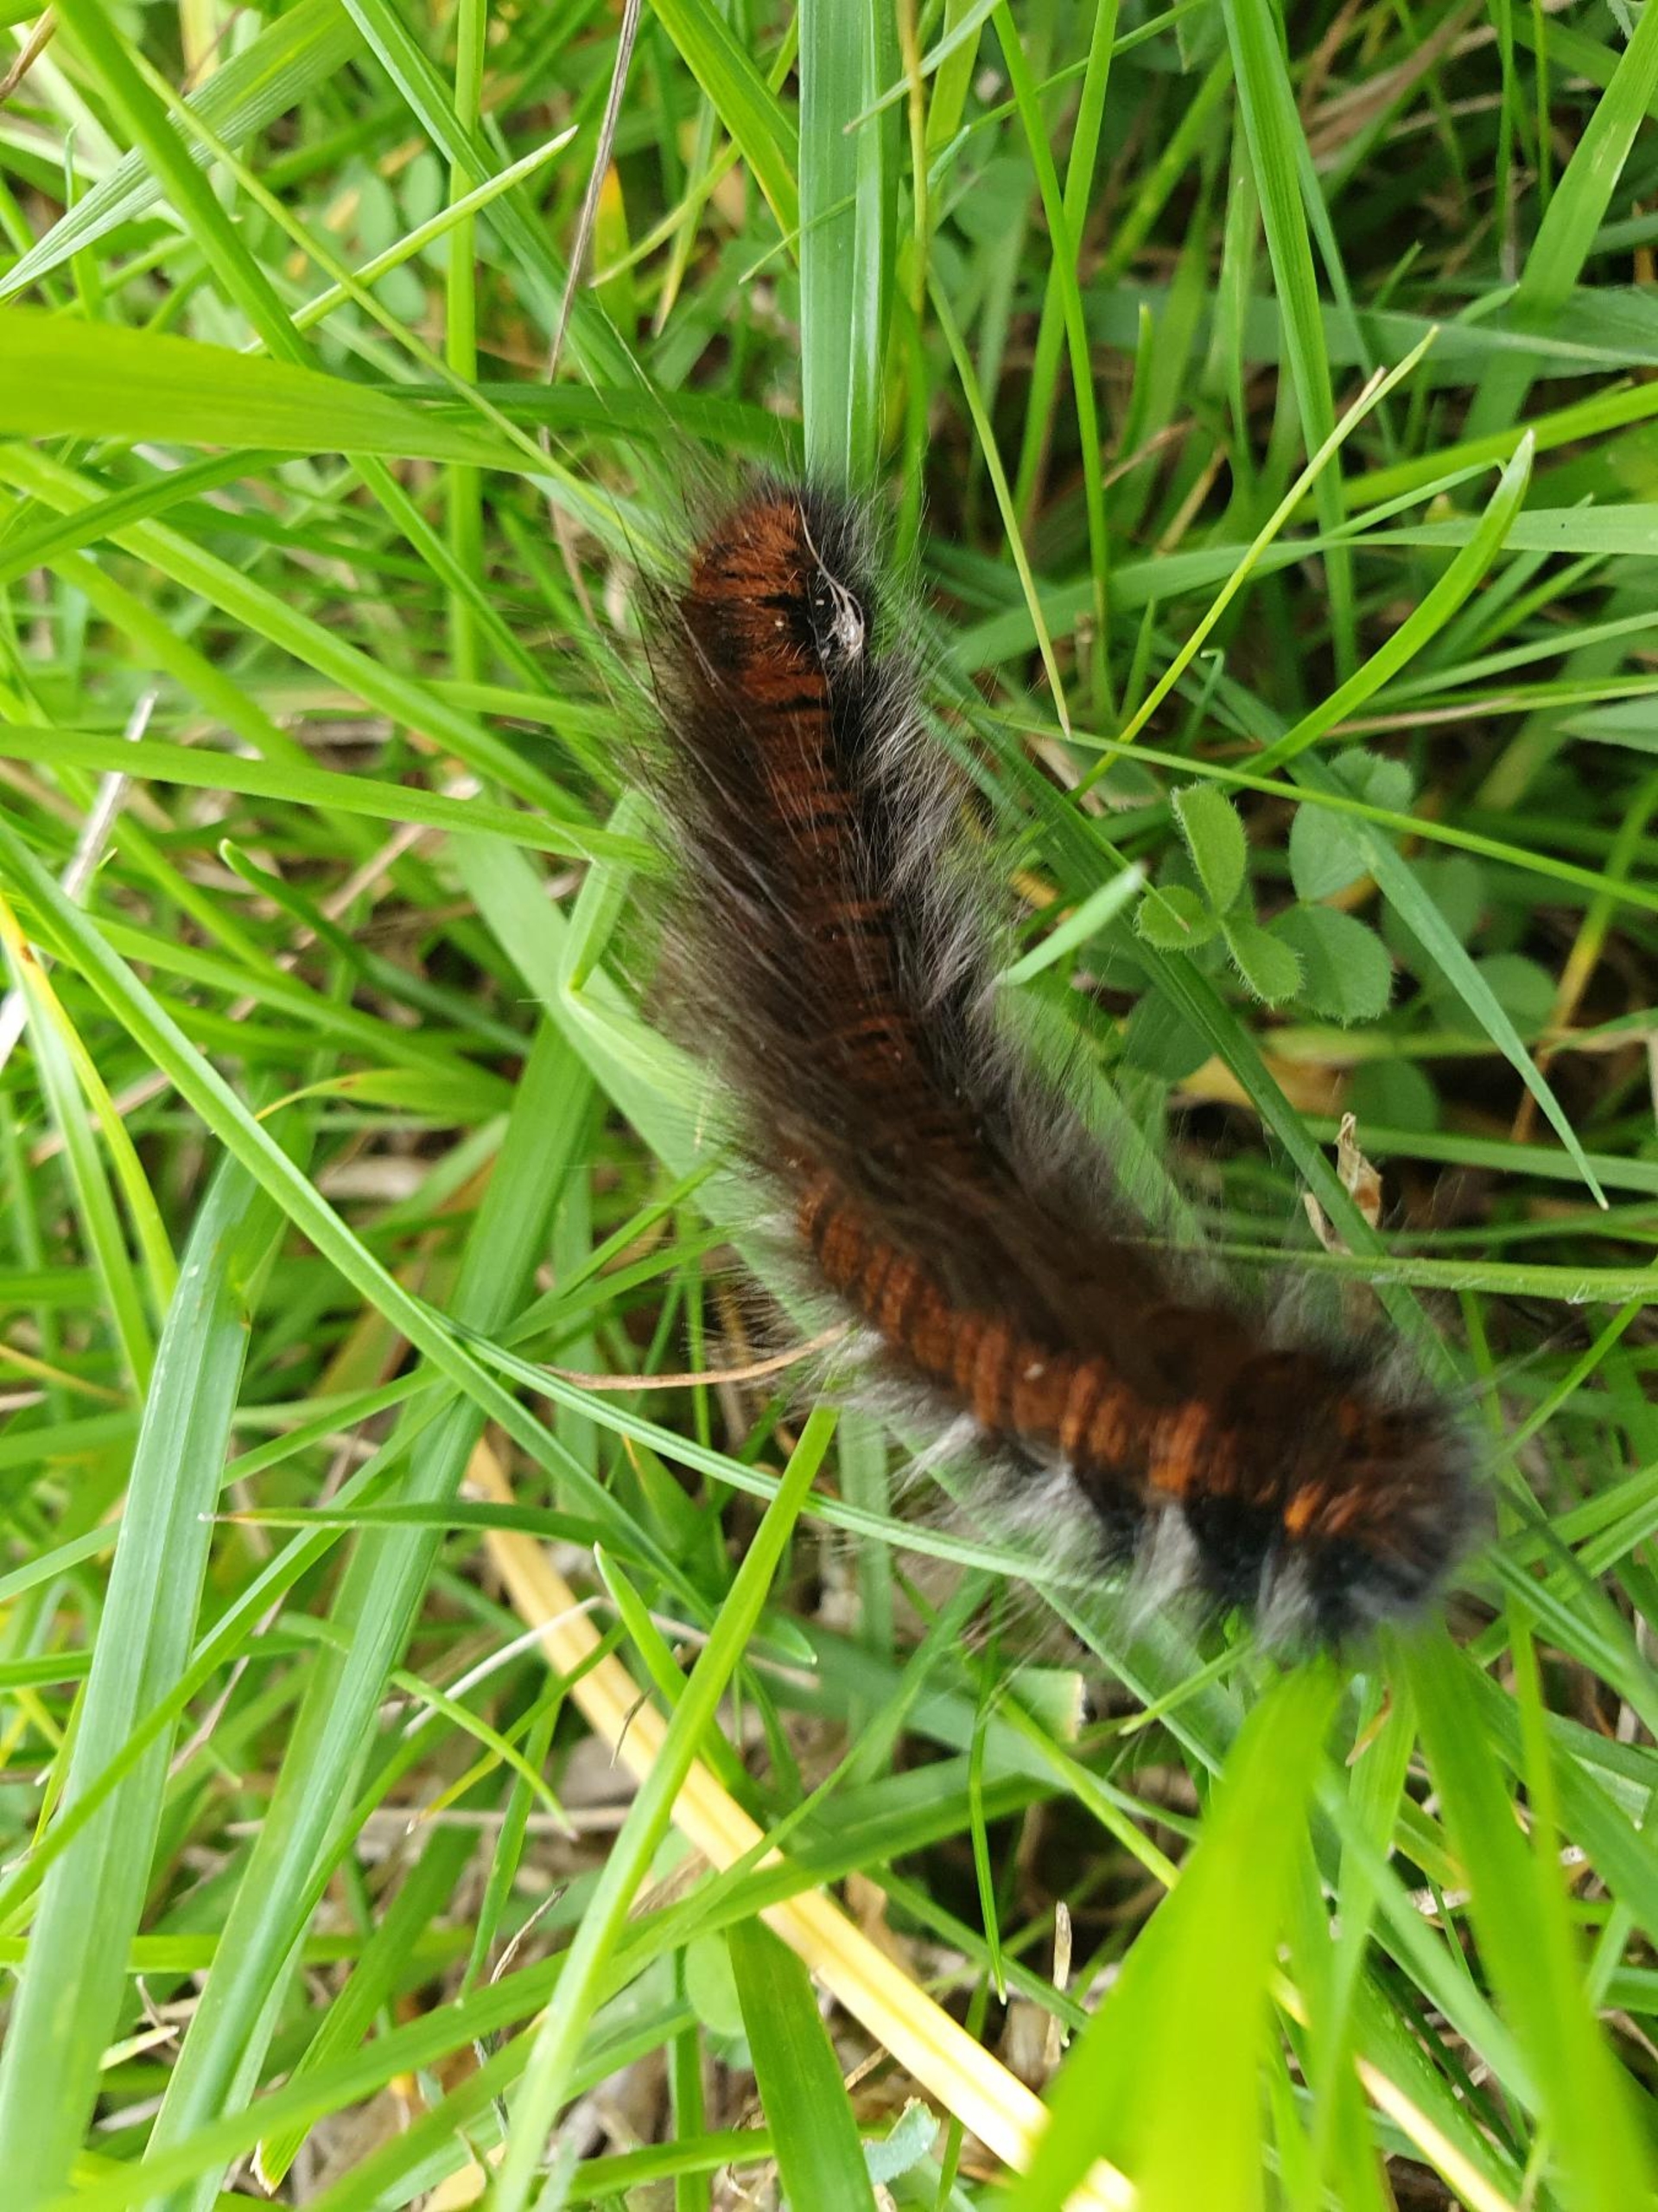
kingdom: Animalia
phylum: Arthropoda
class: Insecta
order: Lepidoptera
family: Lasiocampidae
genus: Macrothylacia
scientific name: Macrothylacia rubi
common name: Brombærspinder
